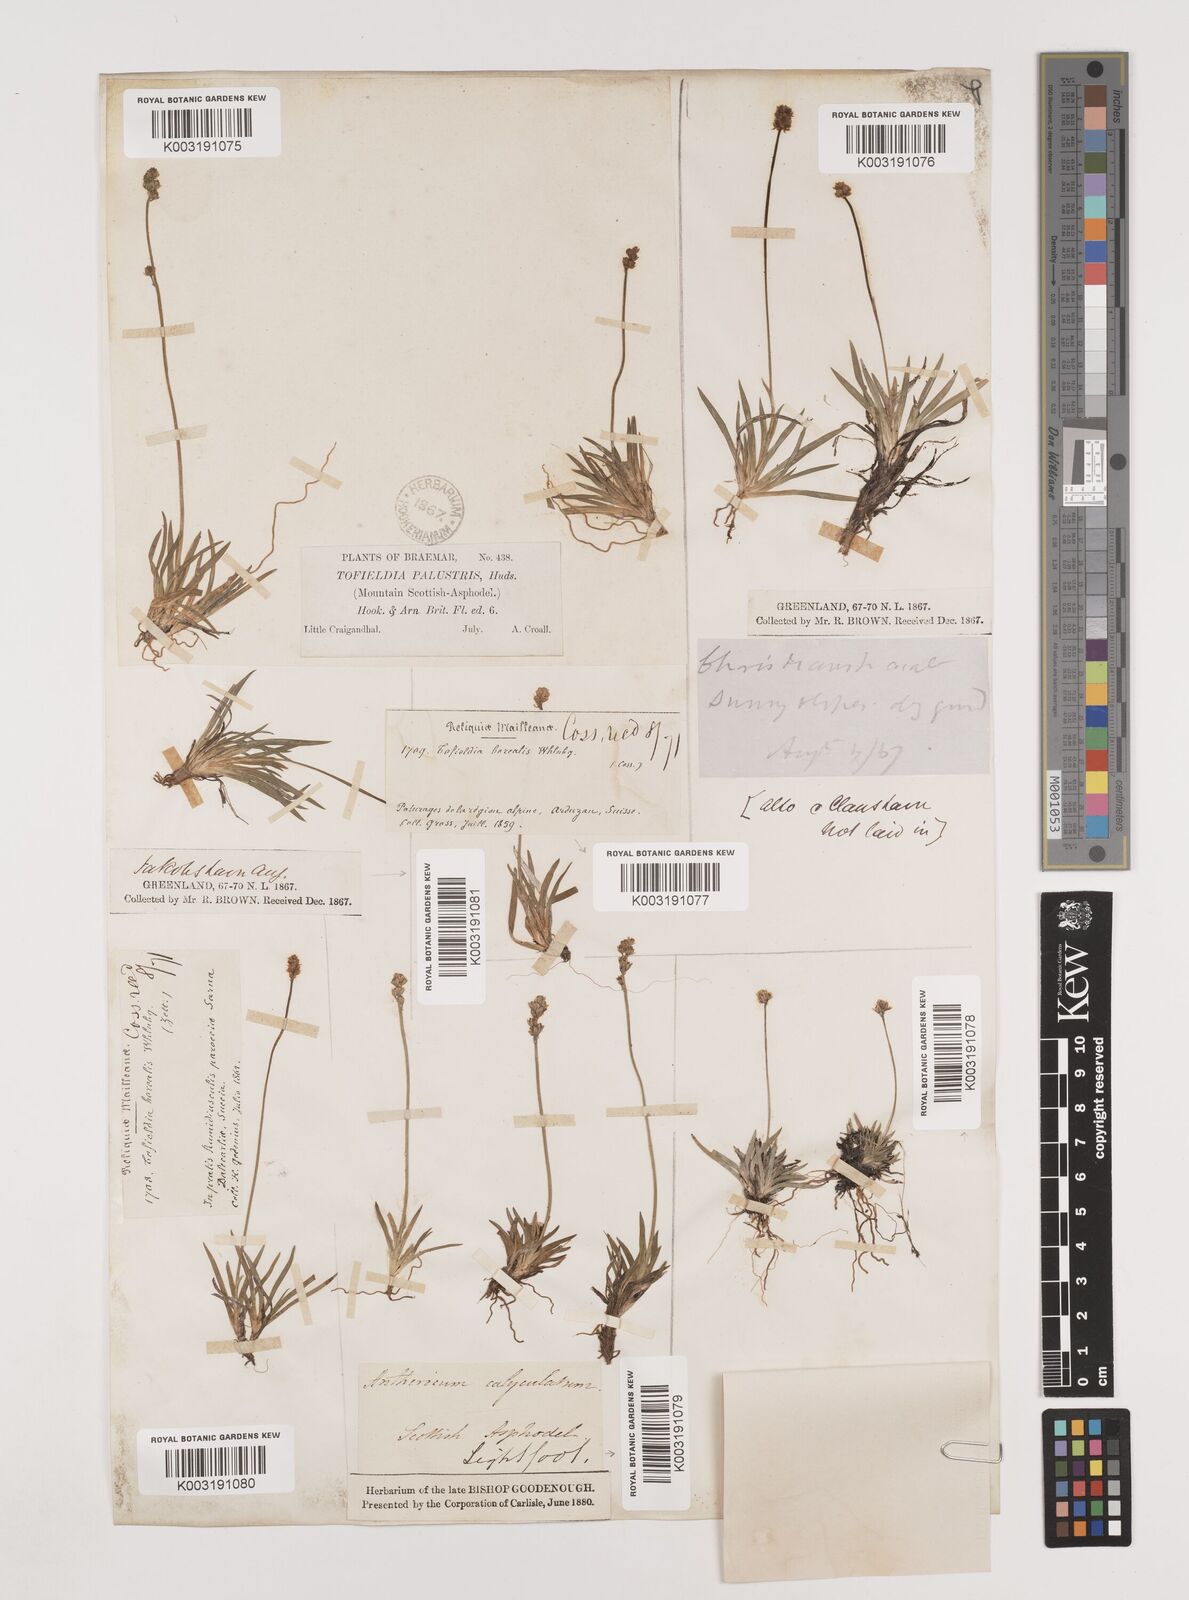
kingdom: Plantae
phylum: Tracheophyta
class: Liliopsida
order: Alismatales
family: Tofieldiaceae
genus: Tofieldia
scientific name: Tofieldia pusilla
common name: Scottish false asphodel
